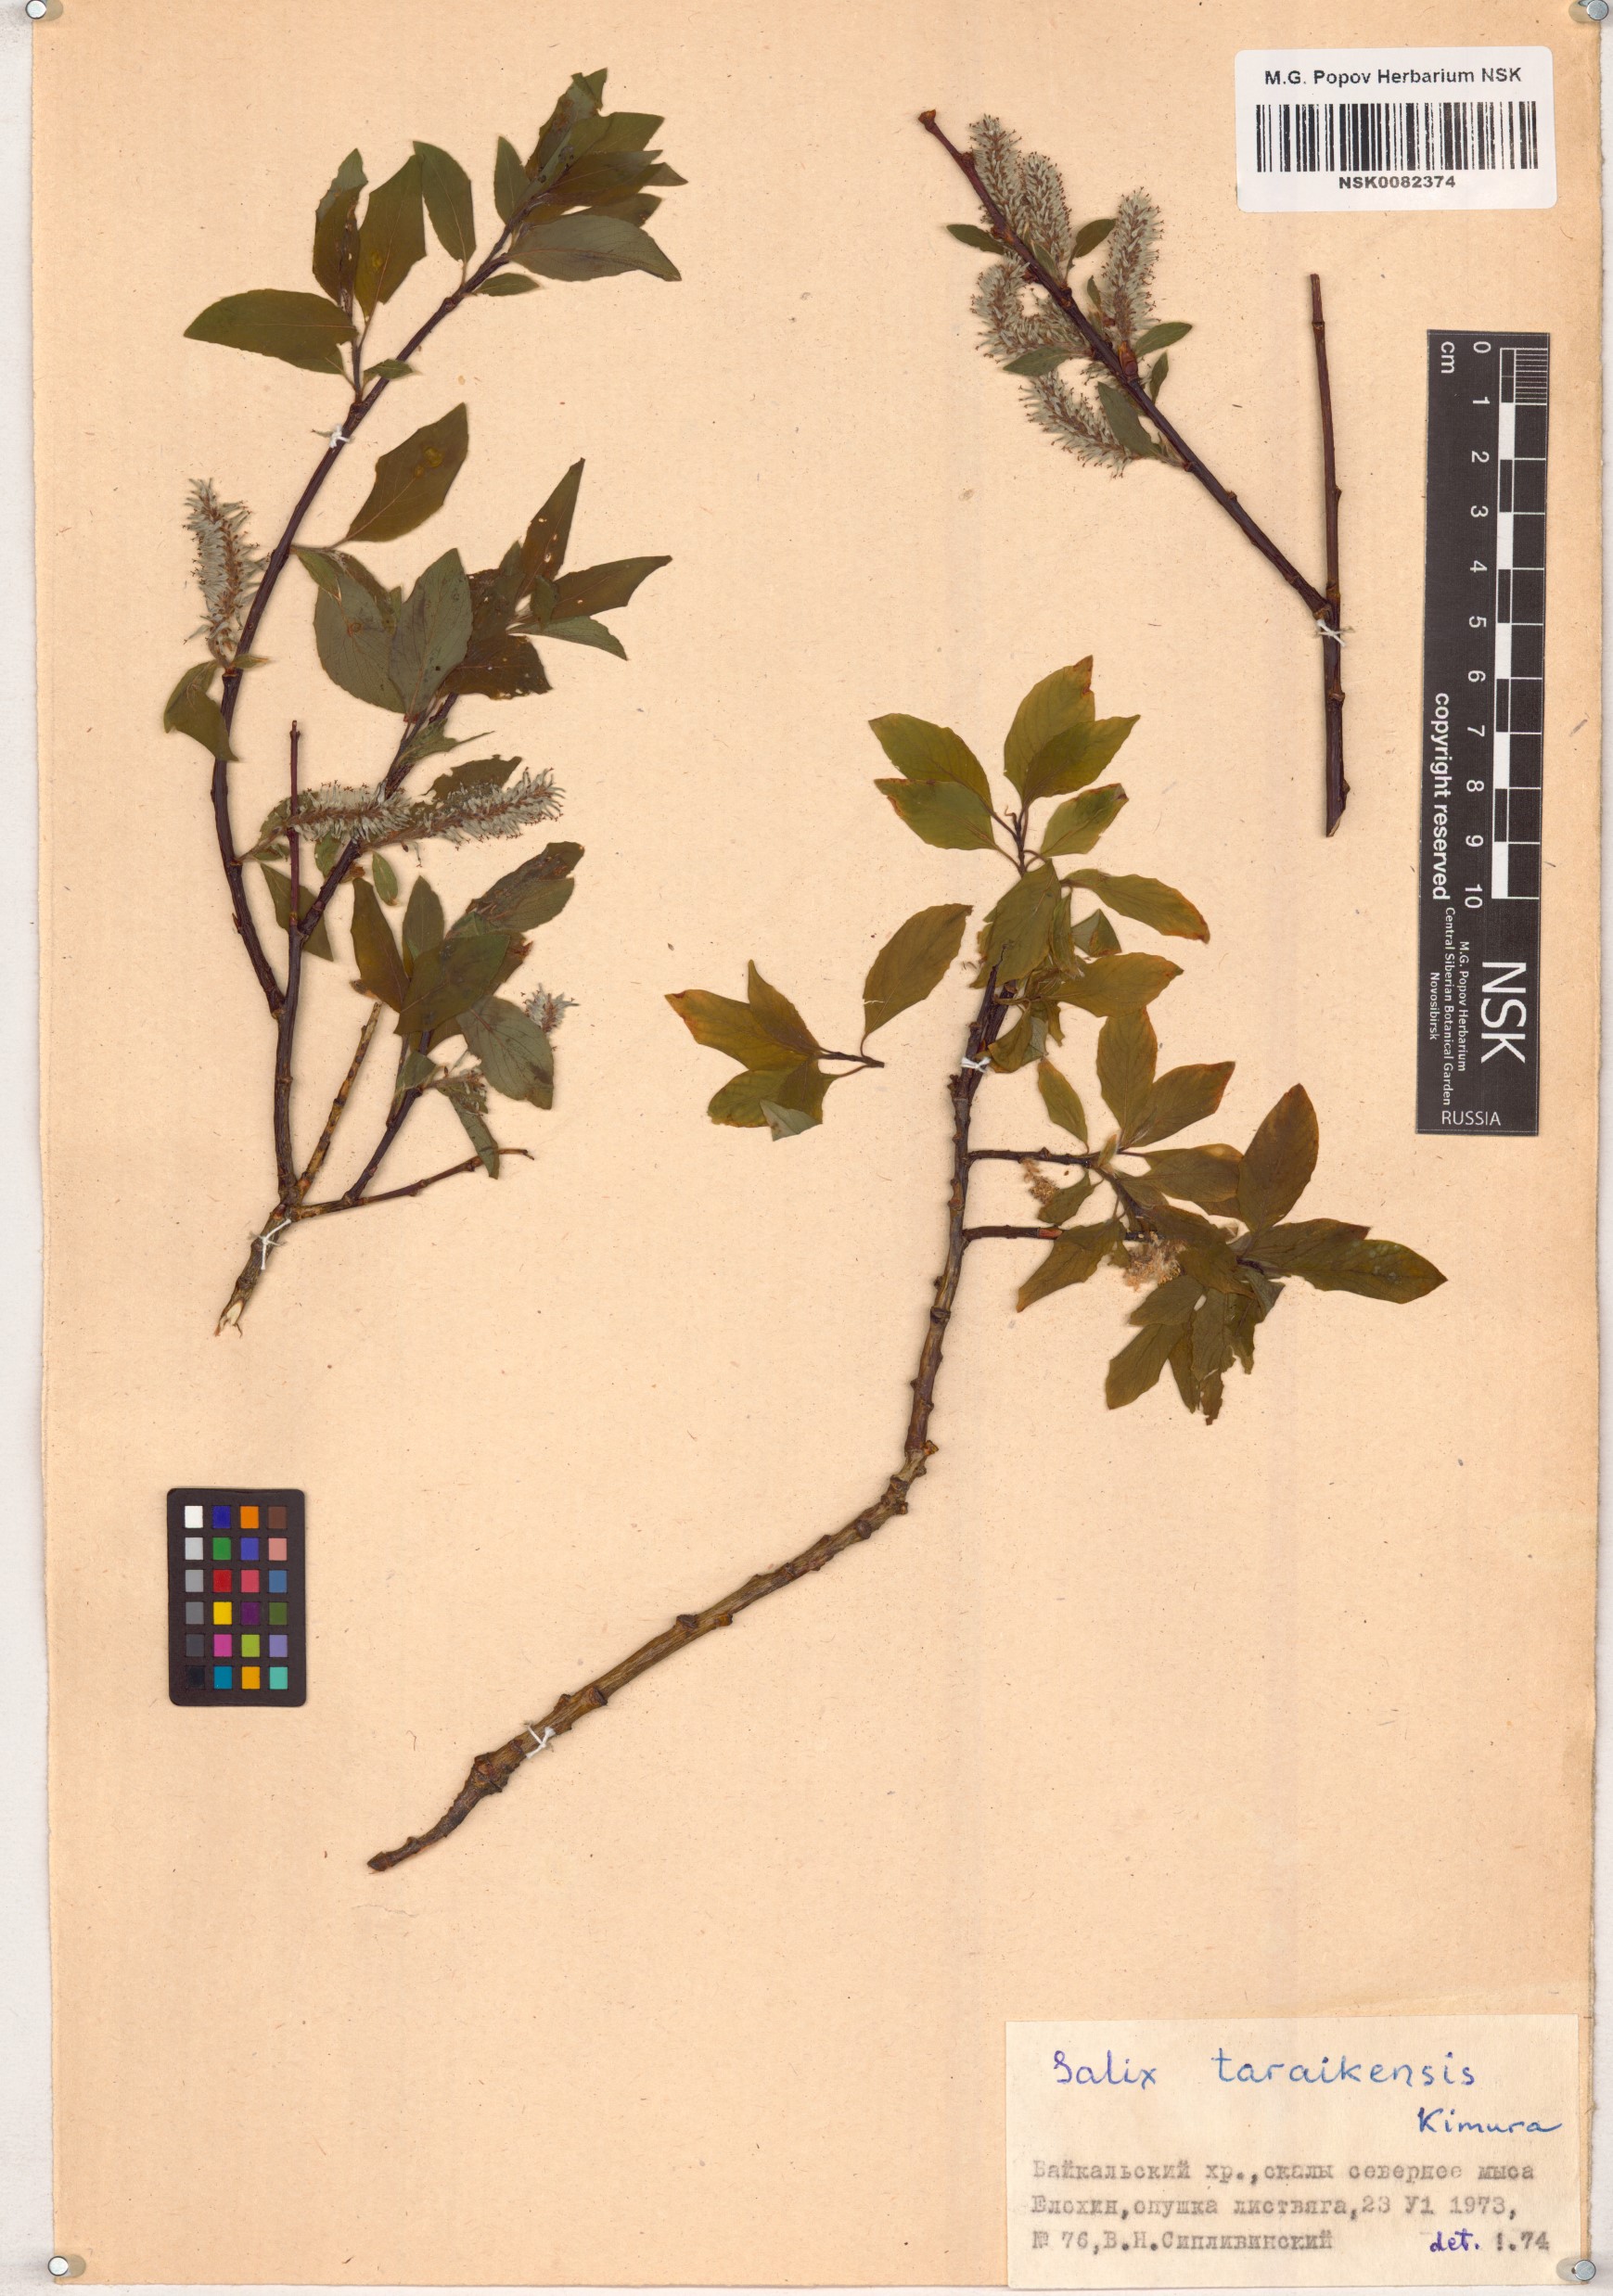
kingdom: Plantae
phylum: Tracheophyta
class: Magnoliopsida
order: Malpighiales
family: Salicaceae
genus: Salix
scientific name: Salix taraikensis
